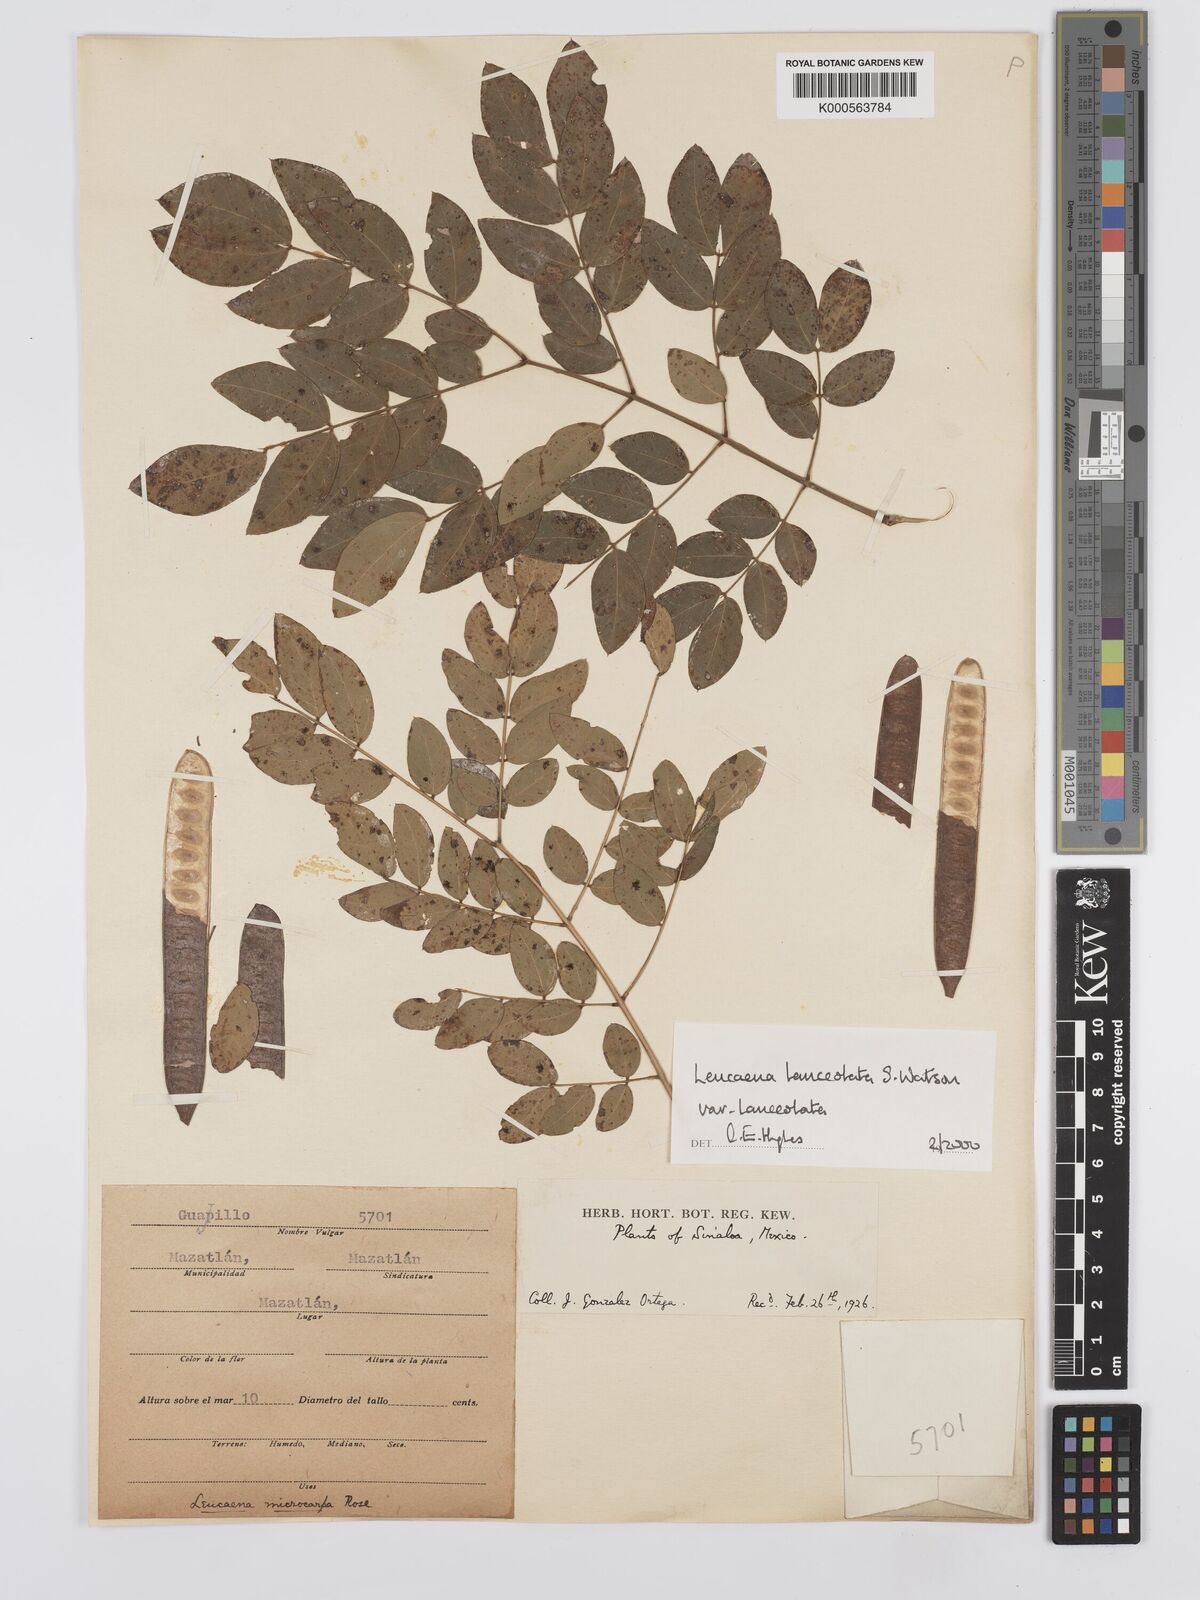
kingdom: Plantae
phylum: Tracheophyta
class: Magnoliopsida
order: Fabales
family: Fabaceae
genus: Leucaena
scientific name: Leucaena lanceolata
